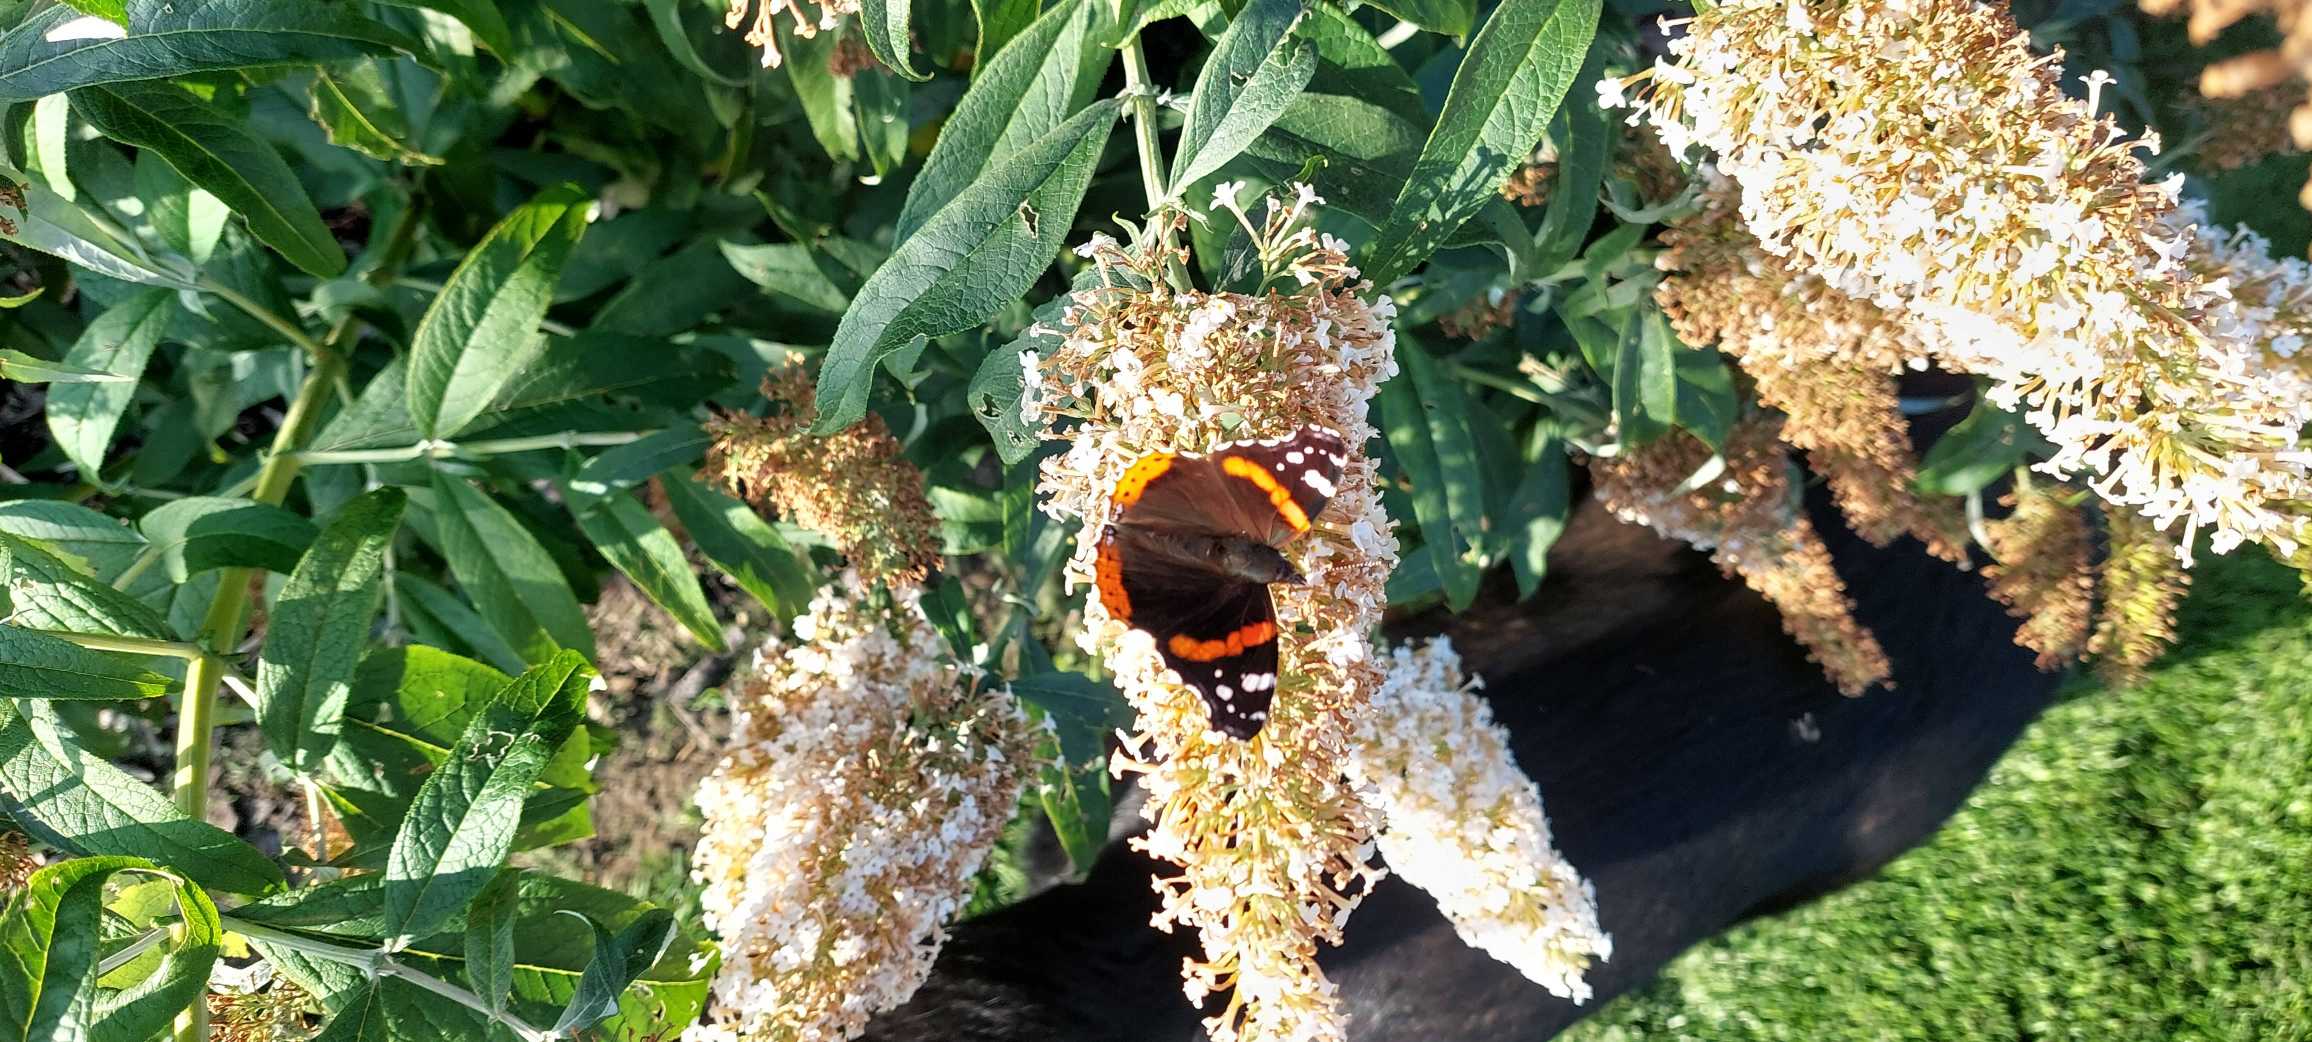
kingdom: Animalia
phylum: Arthropoda
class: Insecta
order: Lepidoptera
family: Nymphalidae
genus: Vanessa
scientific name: Vanessa atalanta
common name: Admiral
